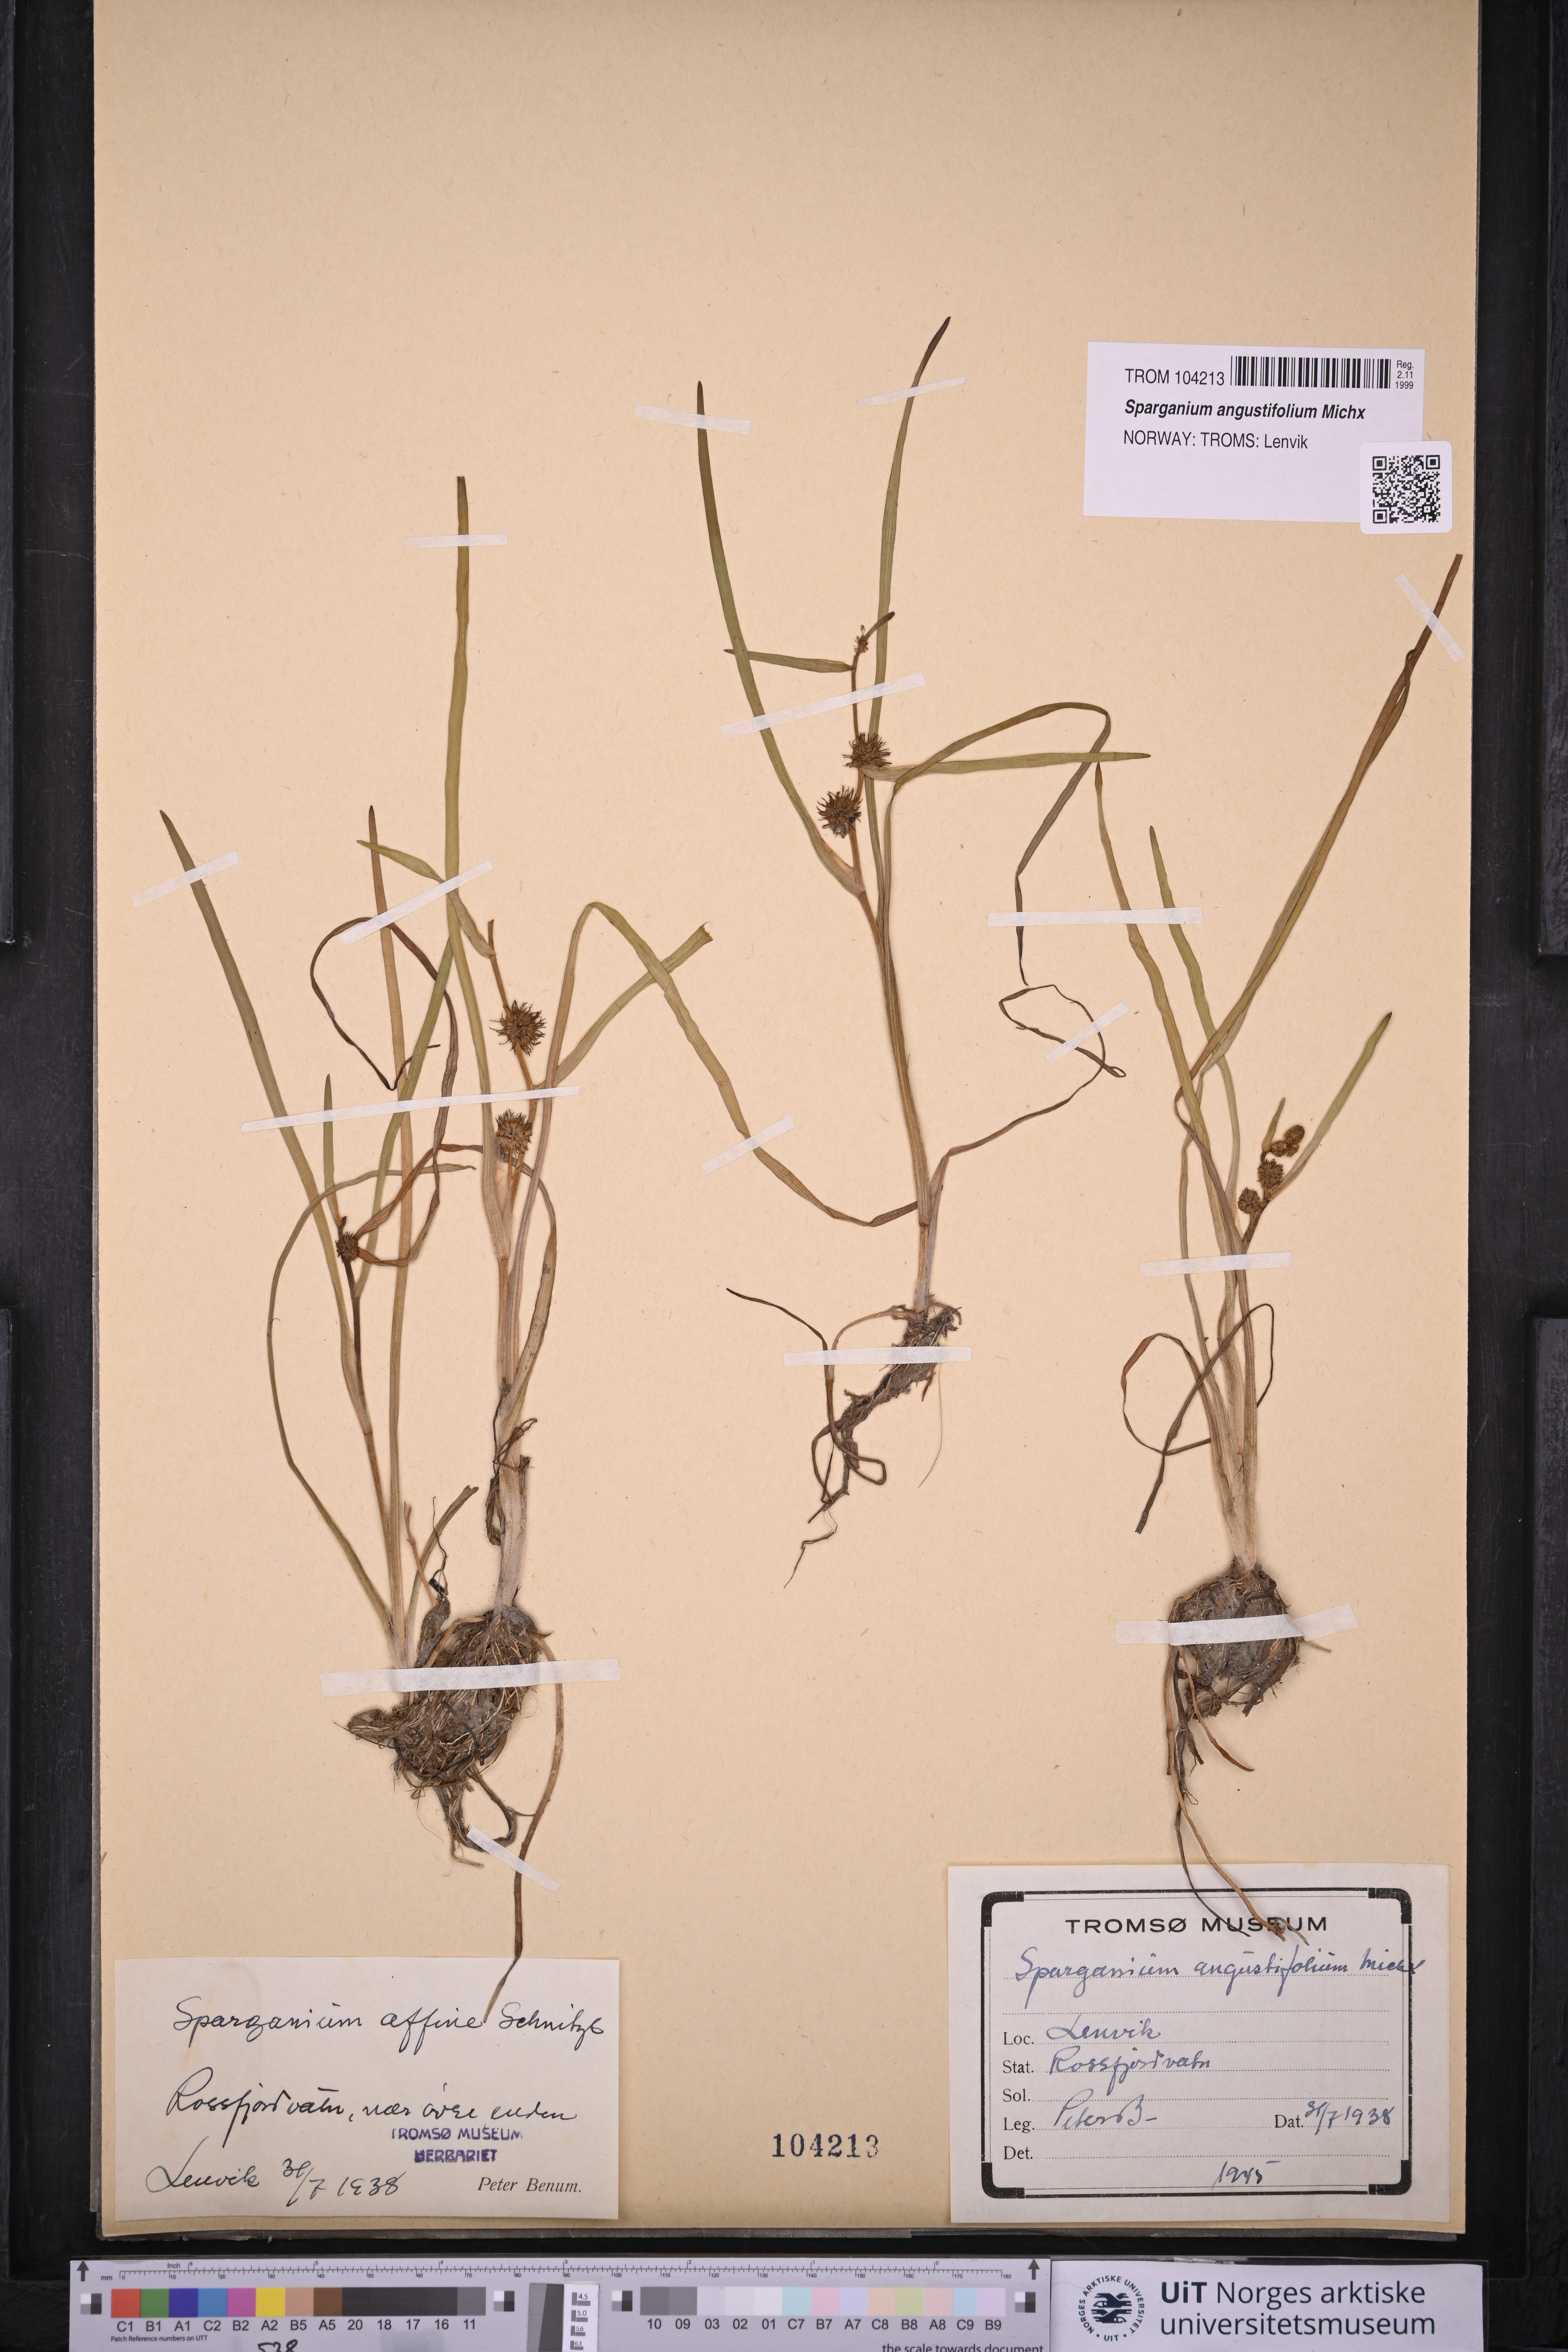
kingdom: Plantae
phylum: Tracheophyta
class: Liliopsida
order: Poales
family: Typhaceae
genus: Sparganium
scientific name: Sparganium angustifolium
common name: Floating bur-reed
